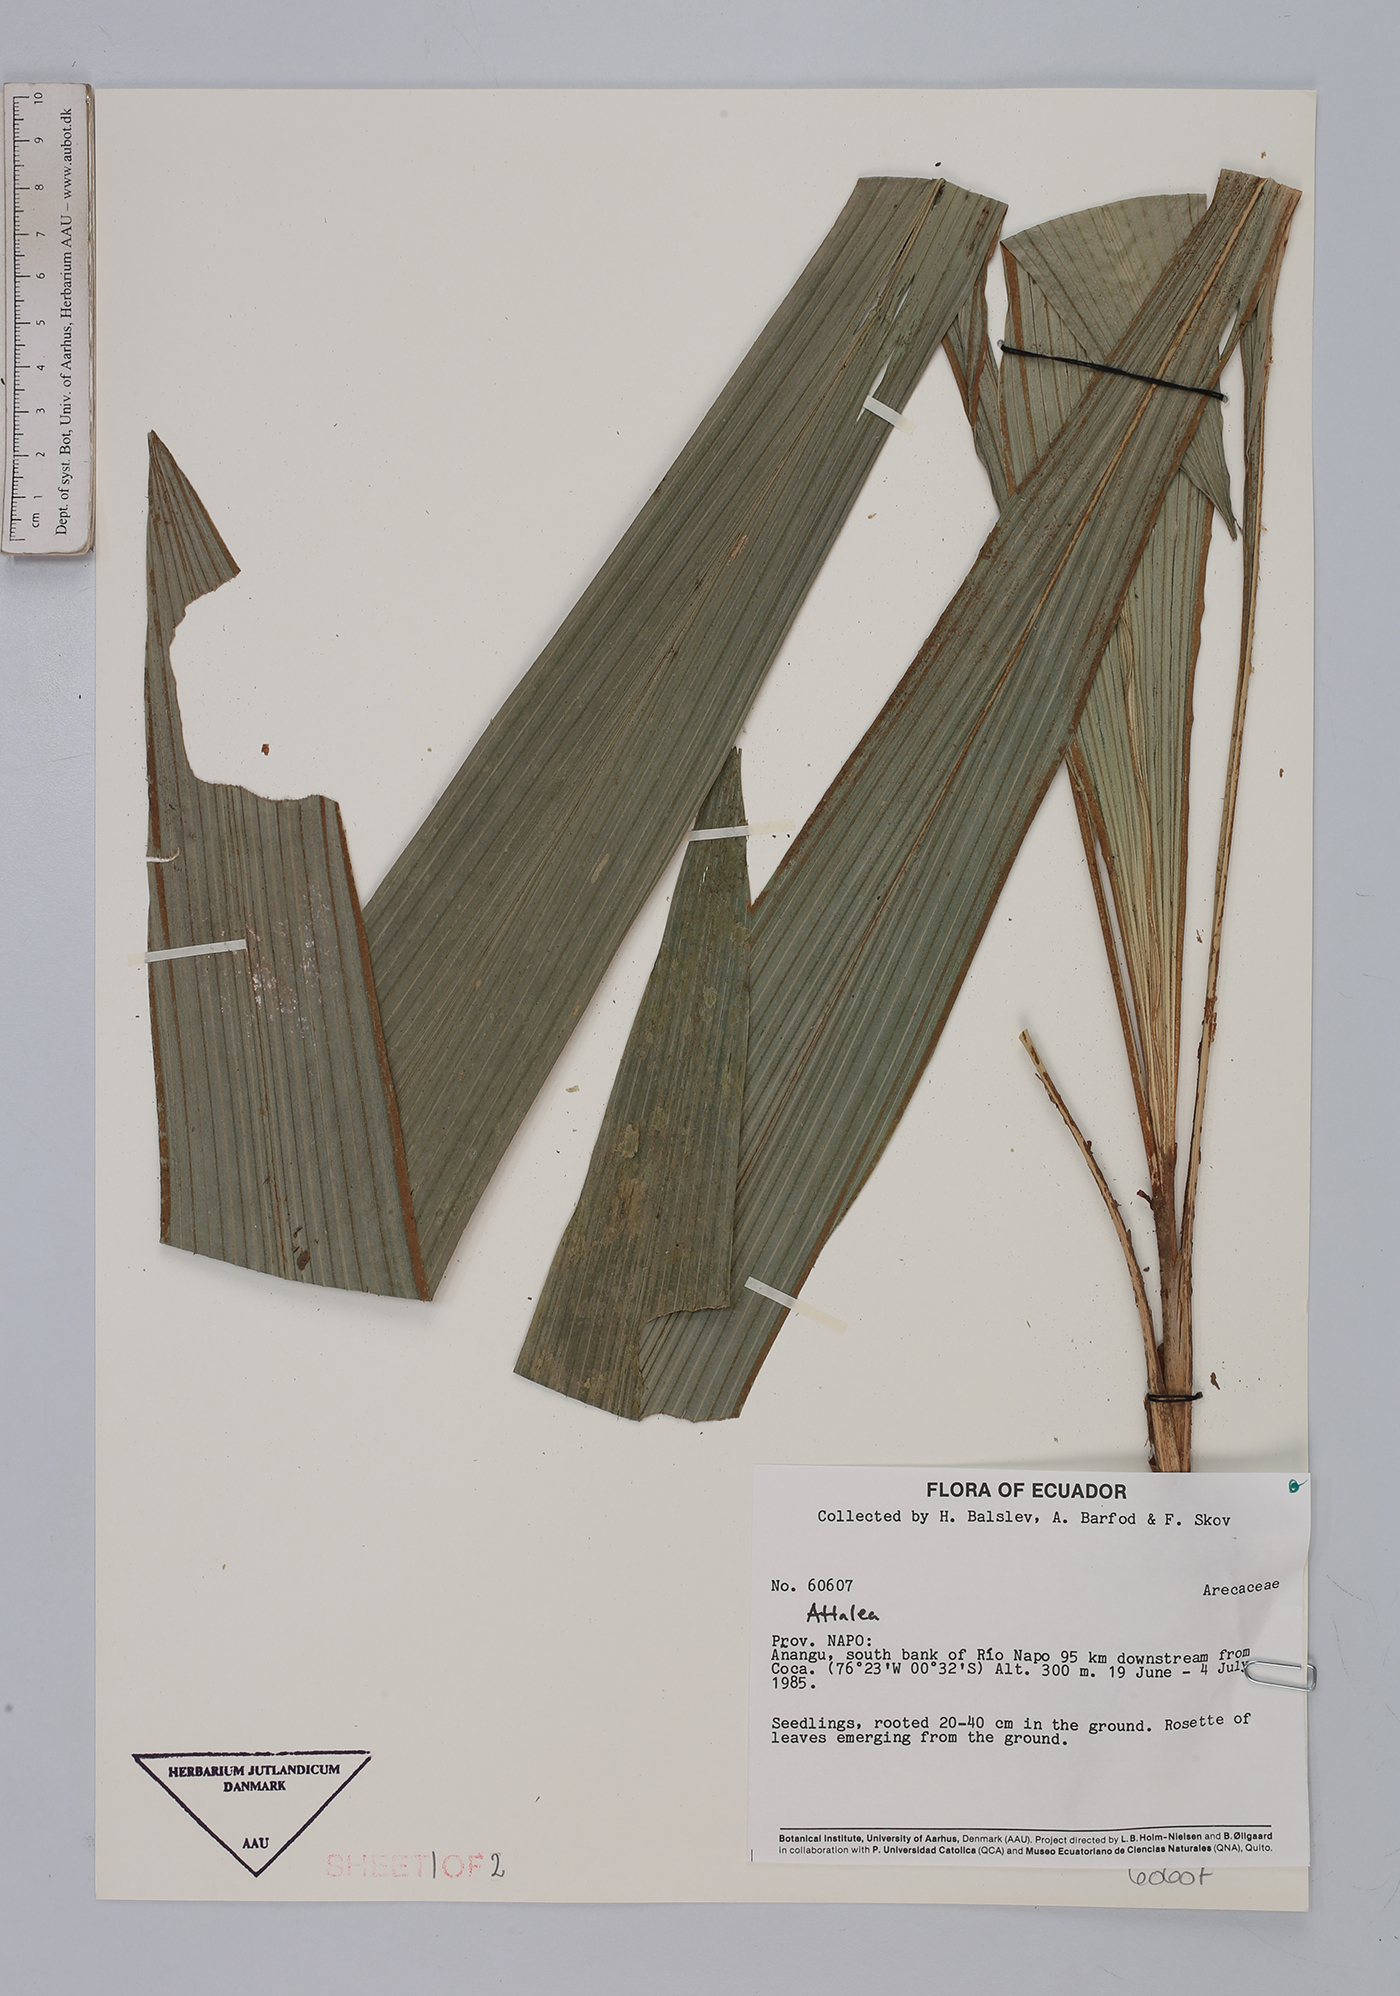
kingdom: Plantae
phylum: Tracheophyta
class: Liliopsida
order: Arecales
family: Arecaceae
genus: Attalea
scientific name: Attalea
